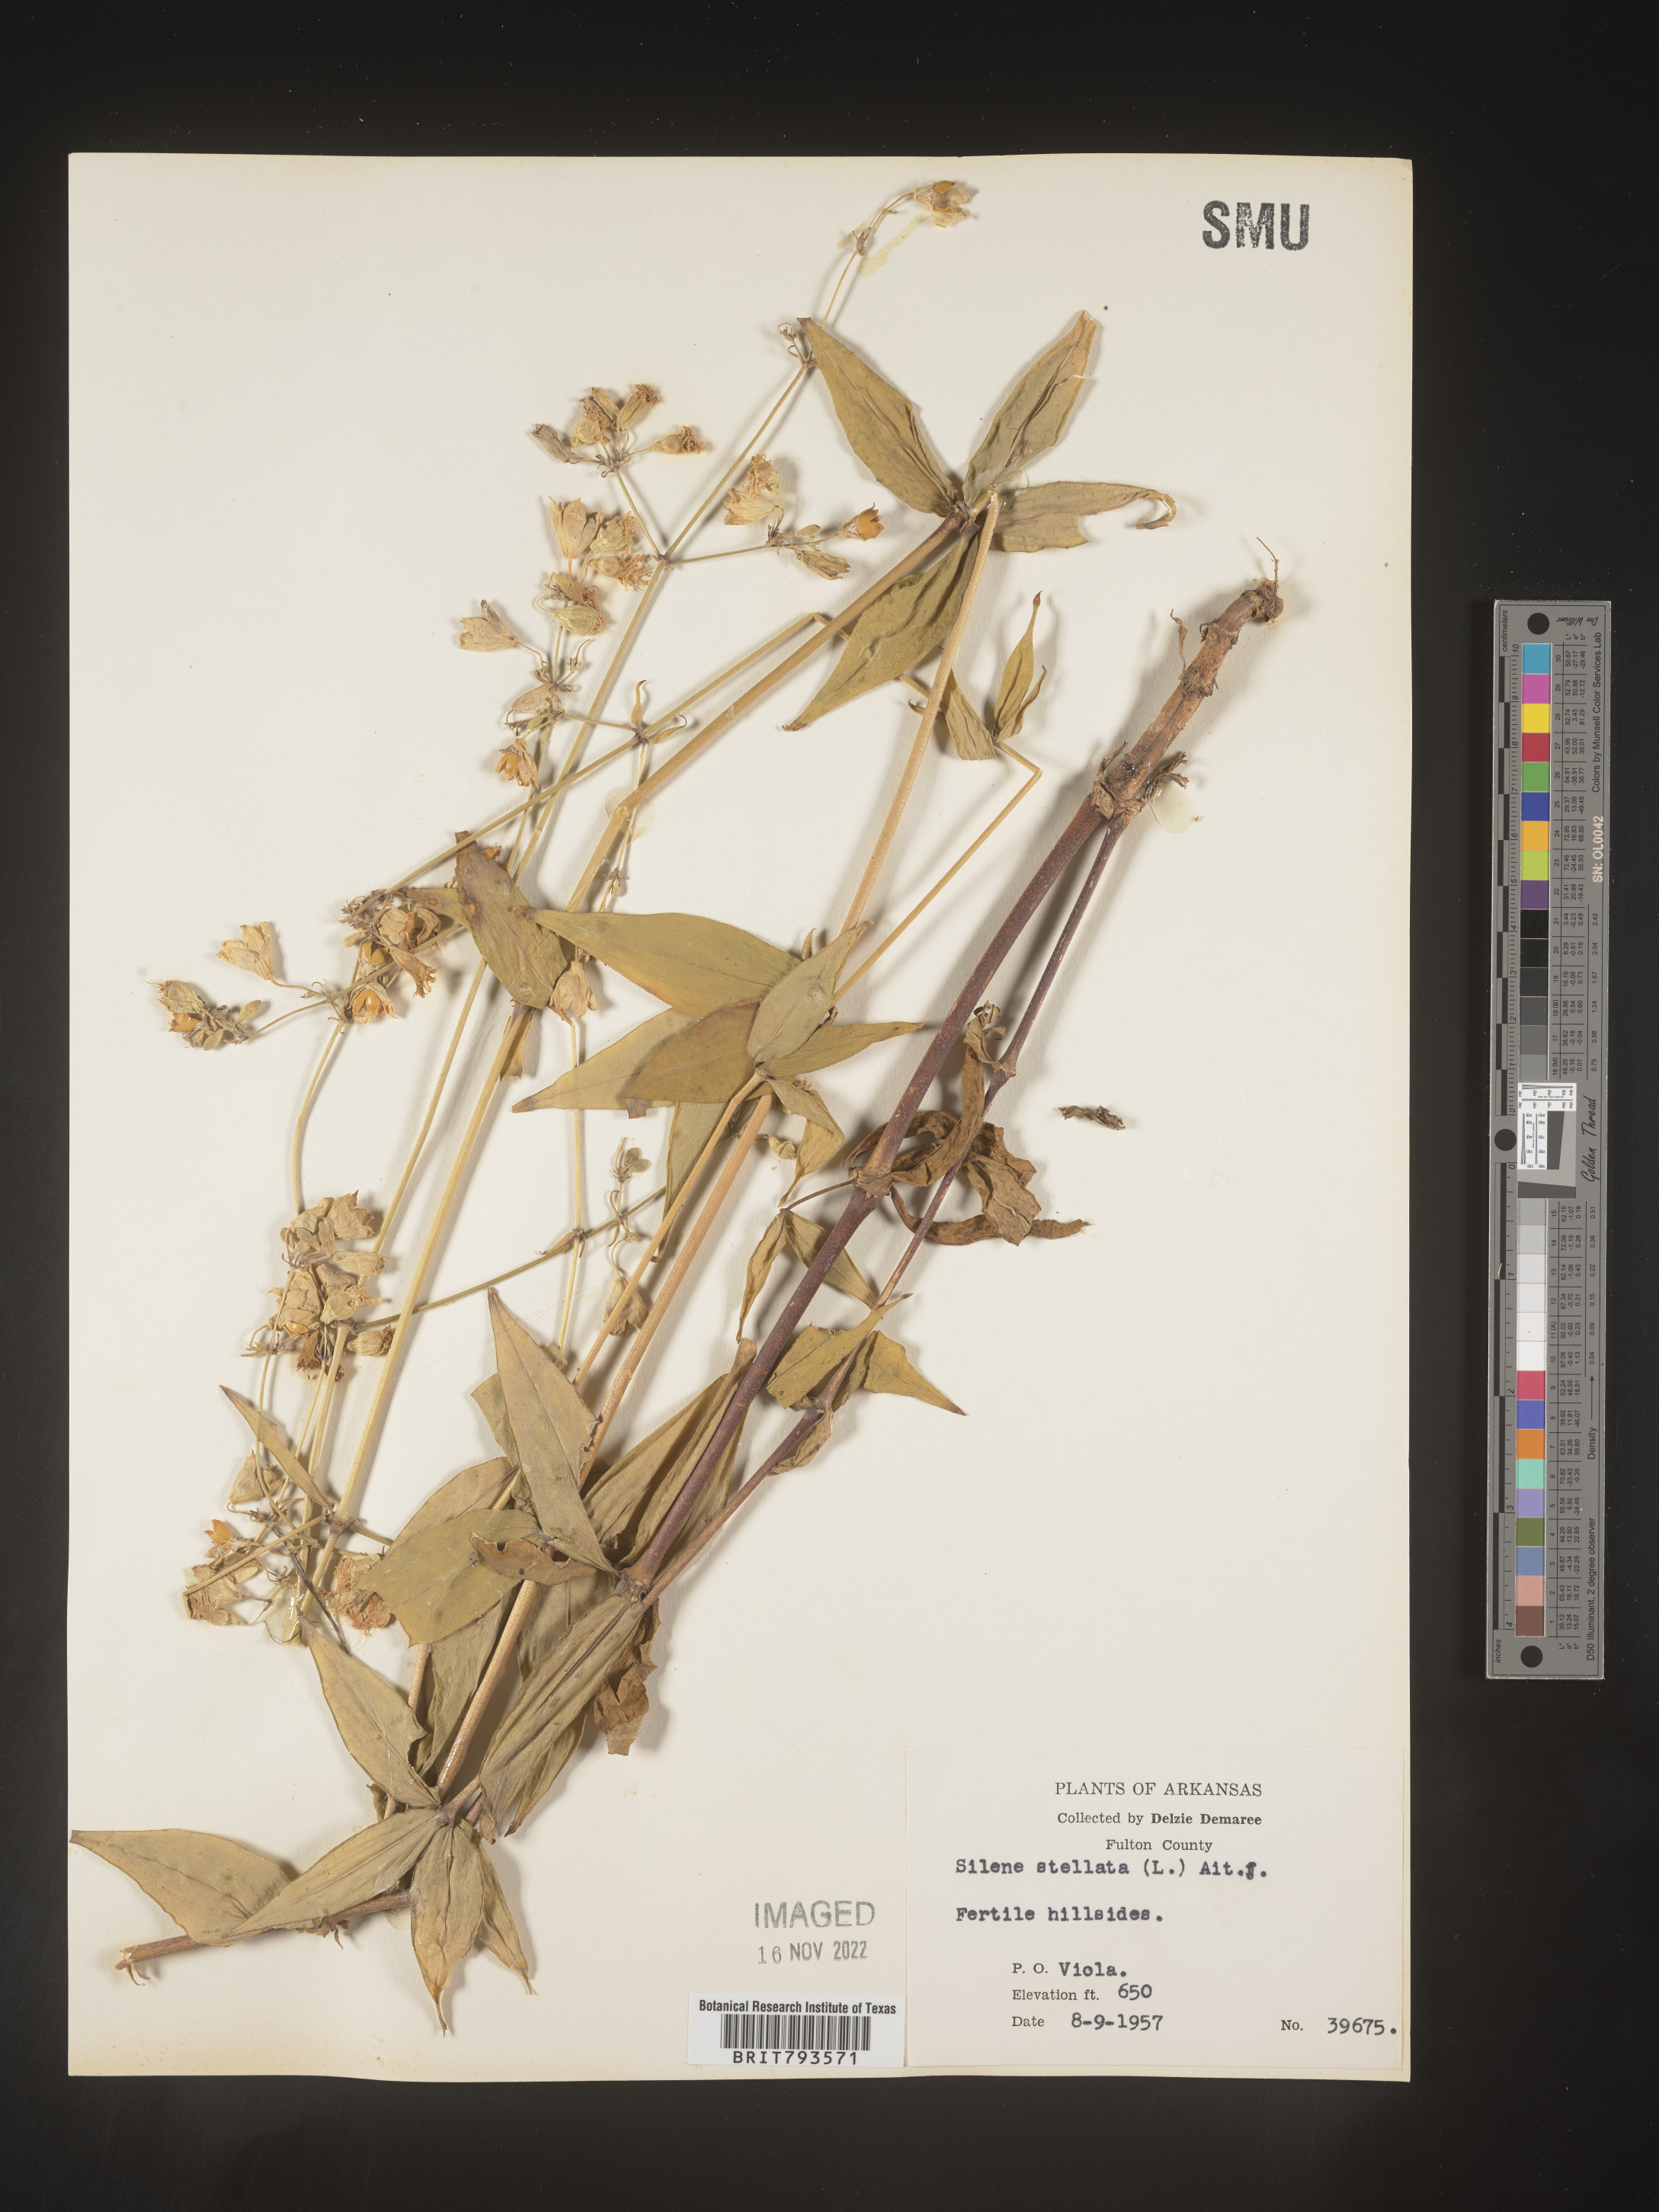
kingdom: Plantae
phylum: Tracheophyta
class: Magnoliopsida
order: Caryophyllales
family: Caryophyllaceae
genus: Silene
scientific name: Silene stellata
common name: Starry campion
